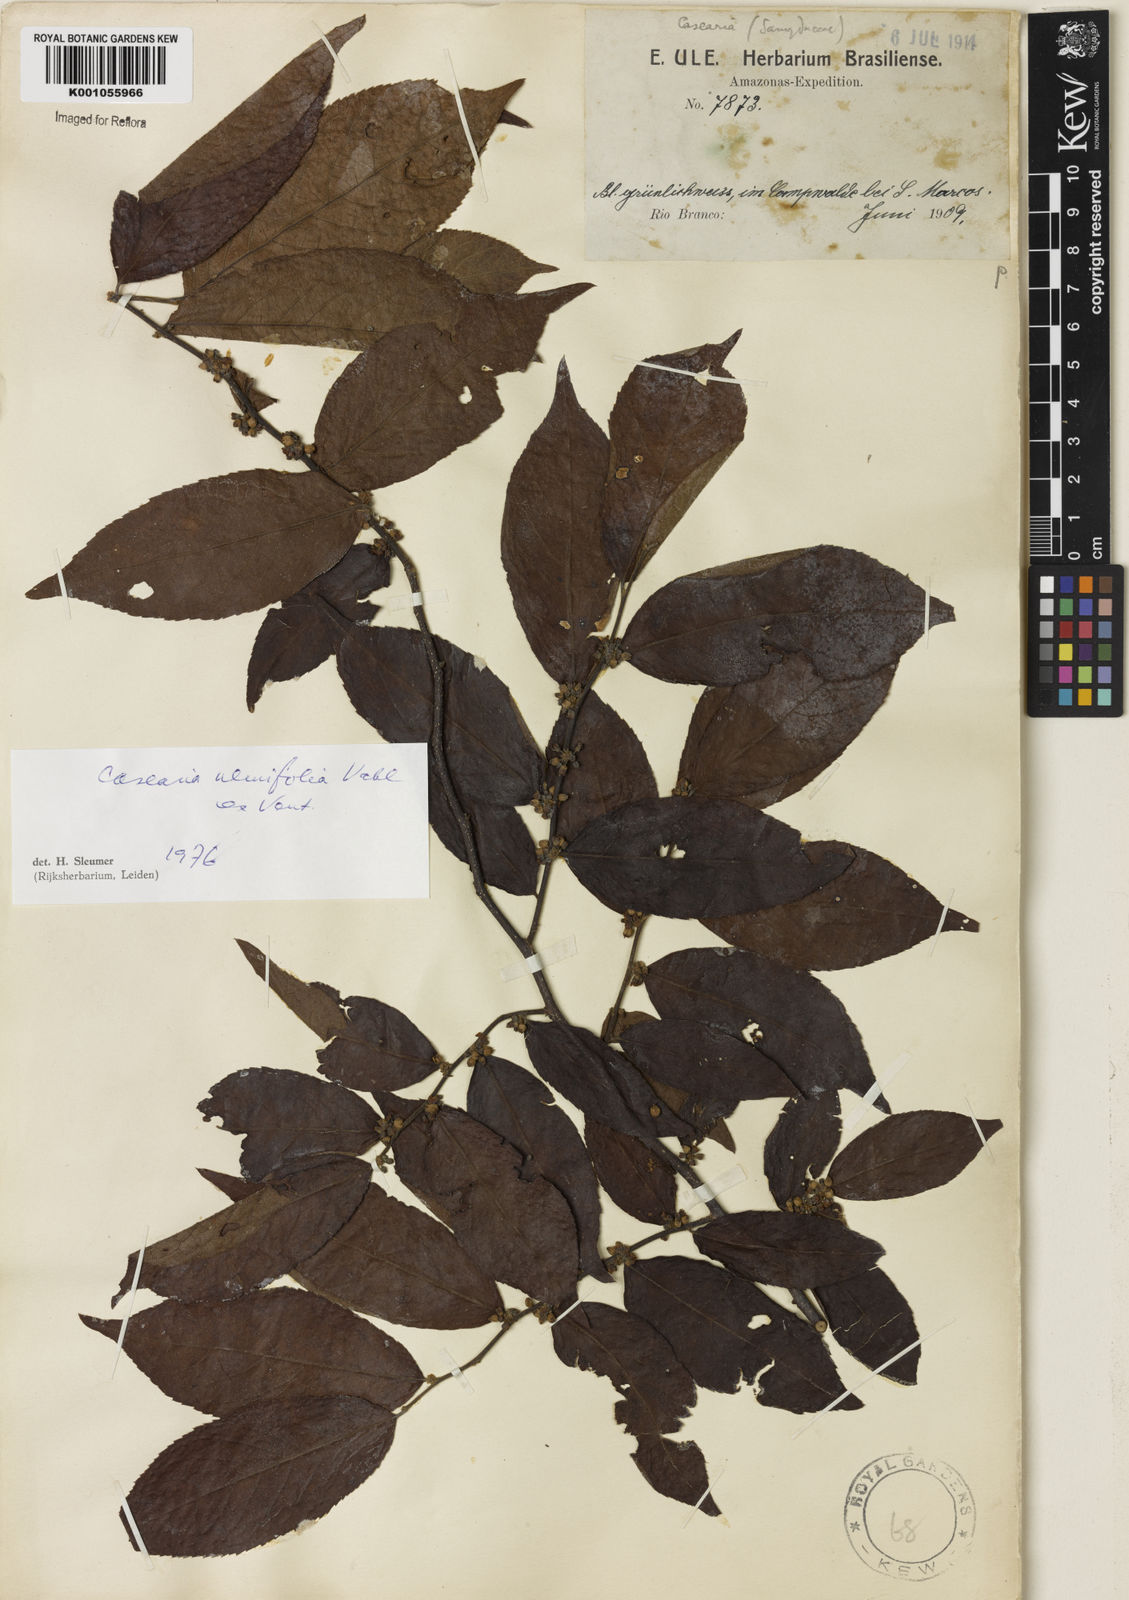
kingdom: Plantae
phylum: Tracheophyta
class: Magnoliopsida
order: Malpighiales
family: Salicaceae
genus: Casearia
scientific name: Casearia ulmifolia
